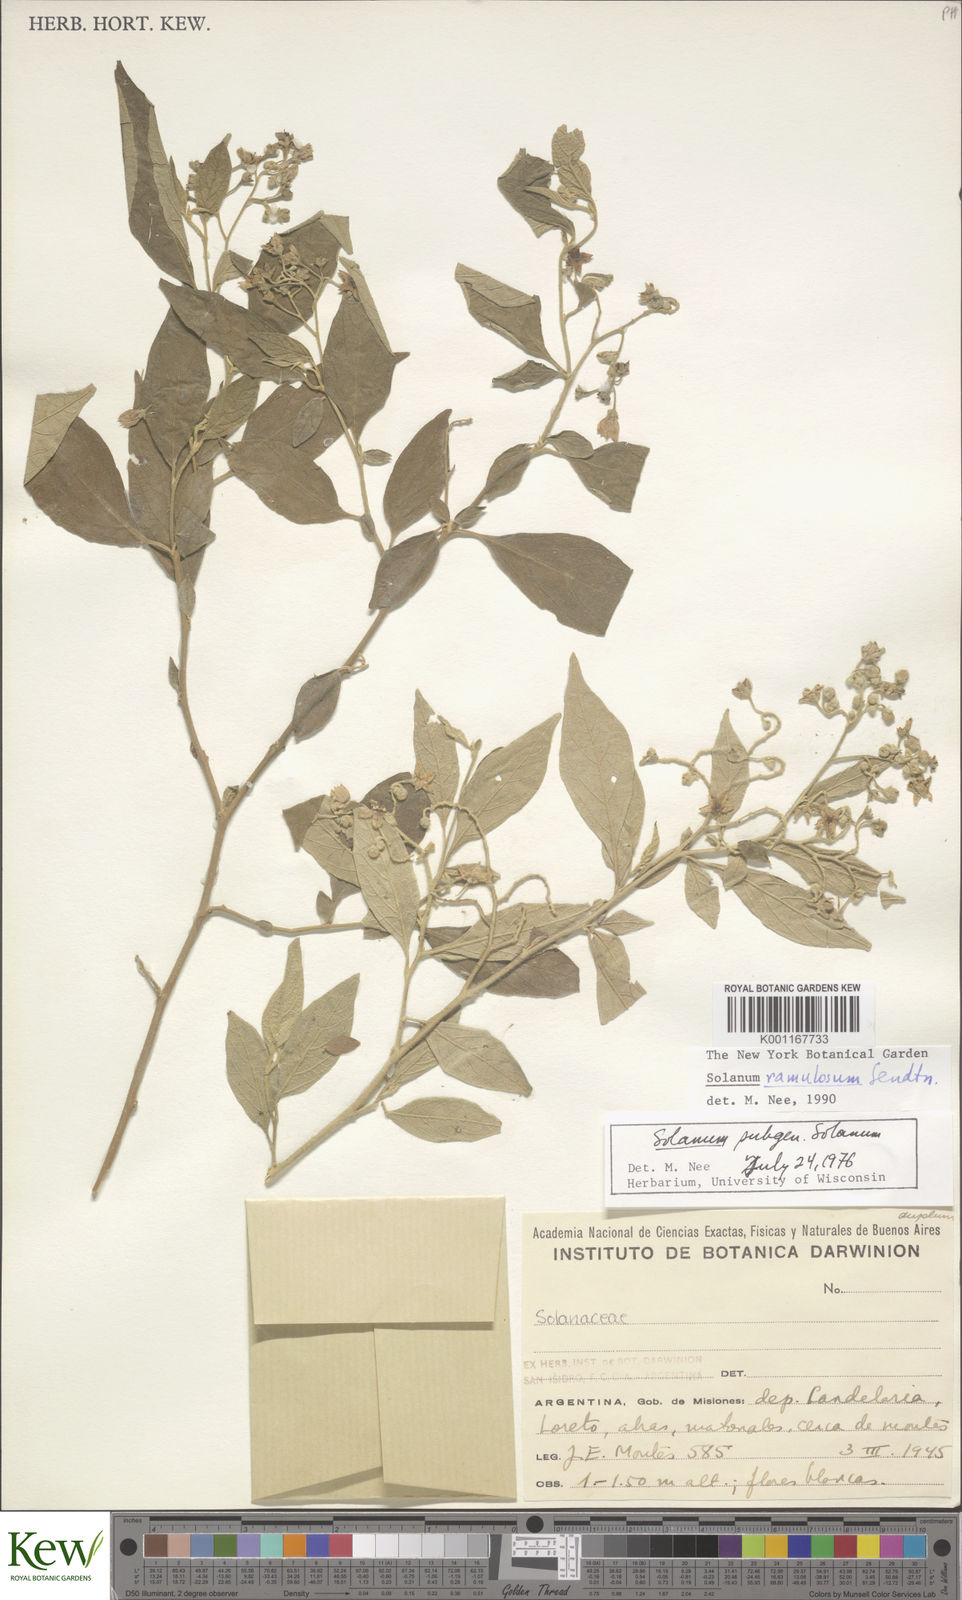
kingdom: Plantae
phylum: Tracheophyta
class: Magnoliopsida
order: Solanales
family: Solanaceae
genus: Solanum
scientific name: Solanum ramulosum
